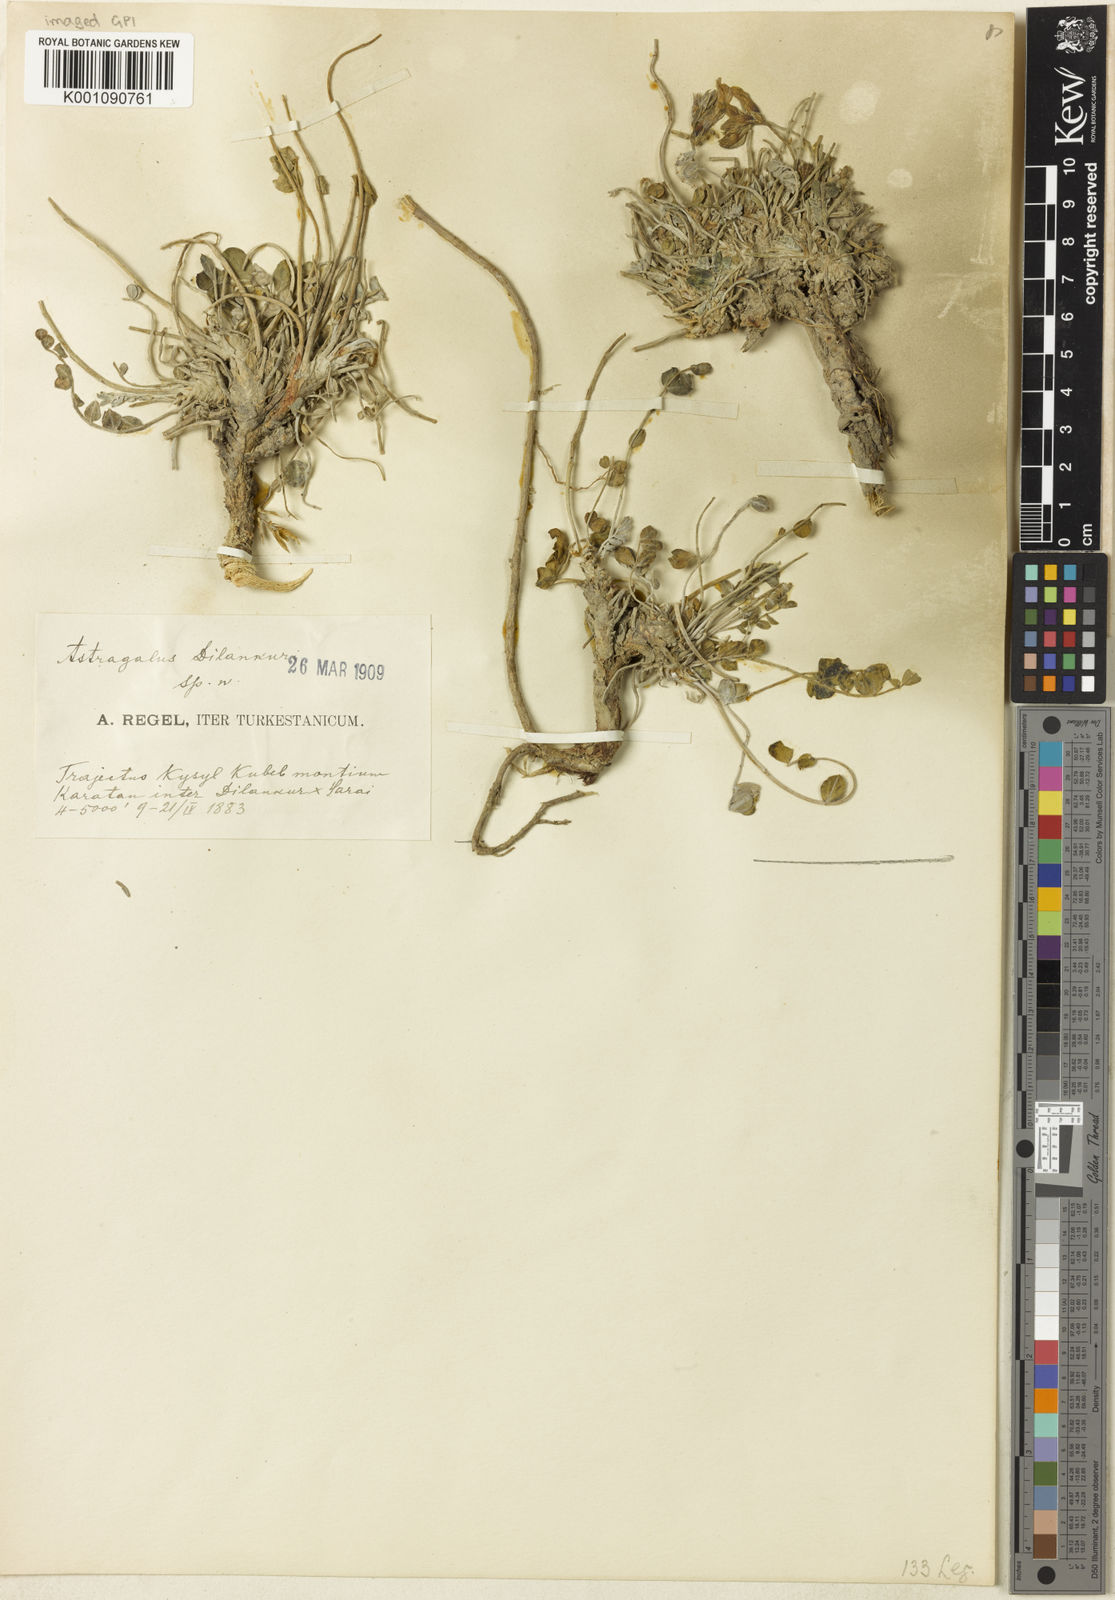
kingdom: Plantae
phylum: Tracheophyta
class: Magnoliopsida
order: Fabales
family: Fabaceae
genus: Astragalus
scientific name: Astragalus
